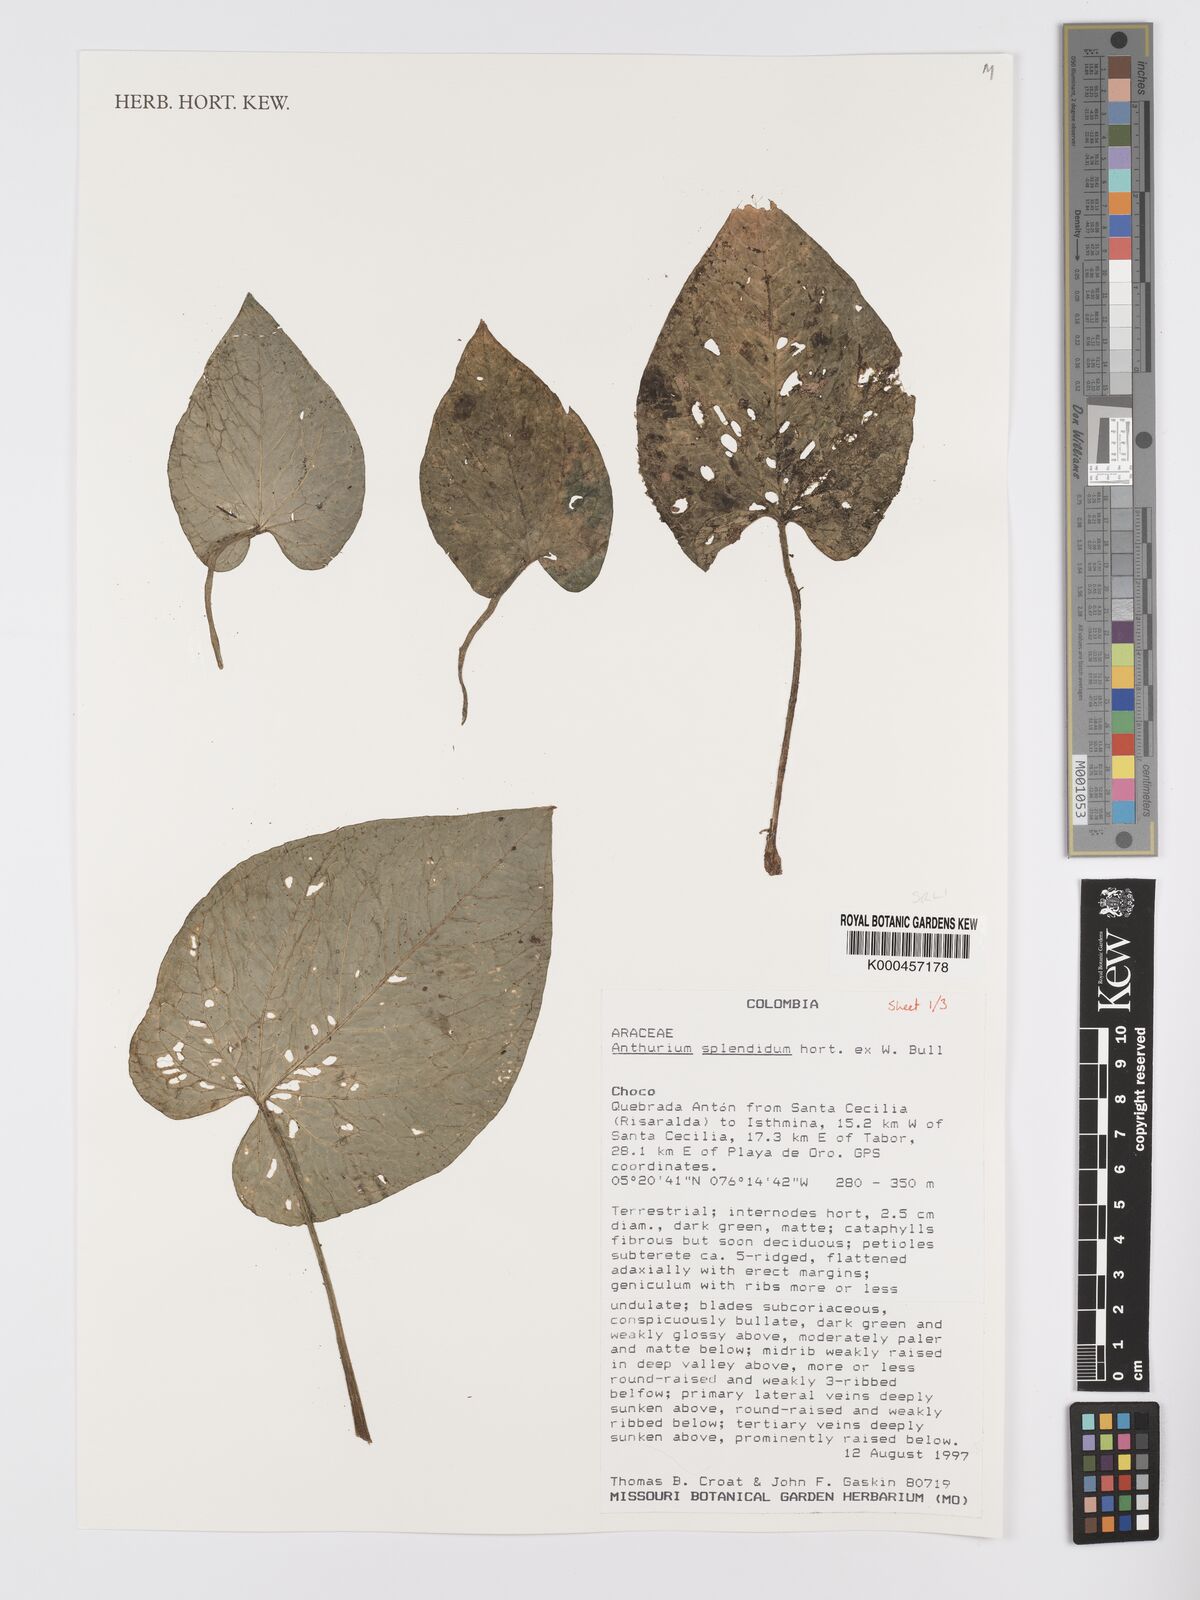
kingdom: Plantae
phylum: Tracheophyta
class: Liliopsida
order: Alismatales
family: Araceae
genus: Anthurium
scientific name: Anthurium splendidum
